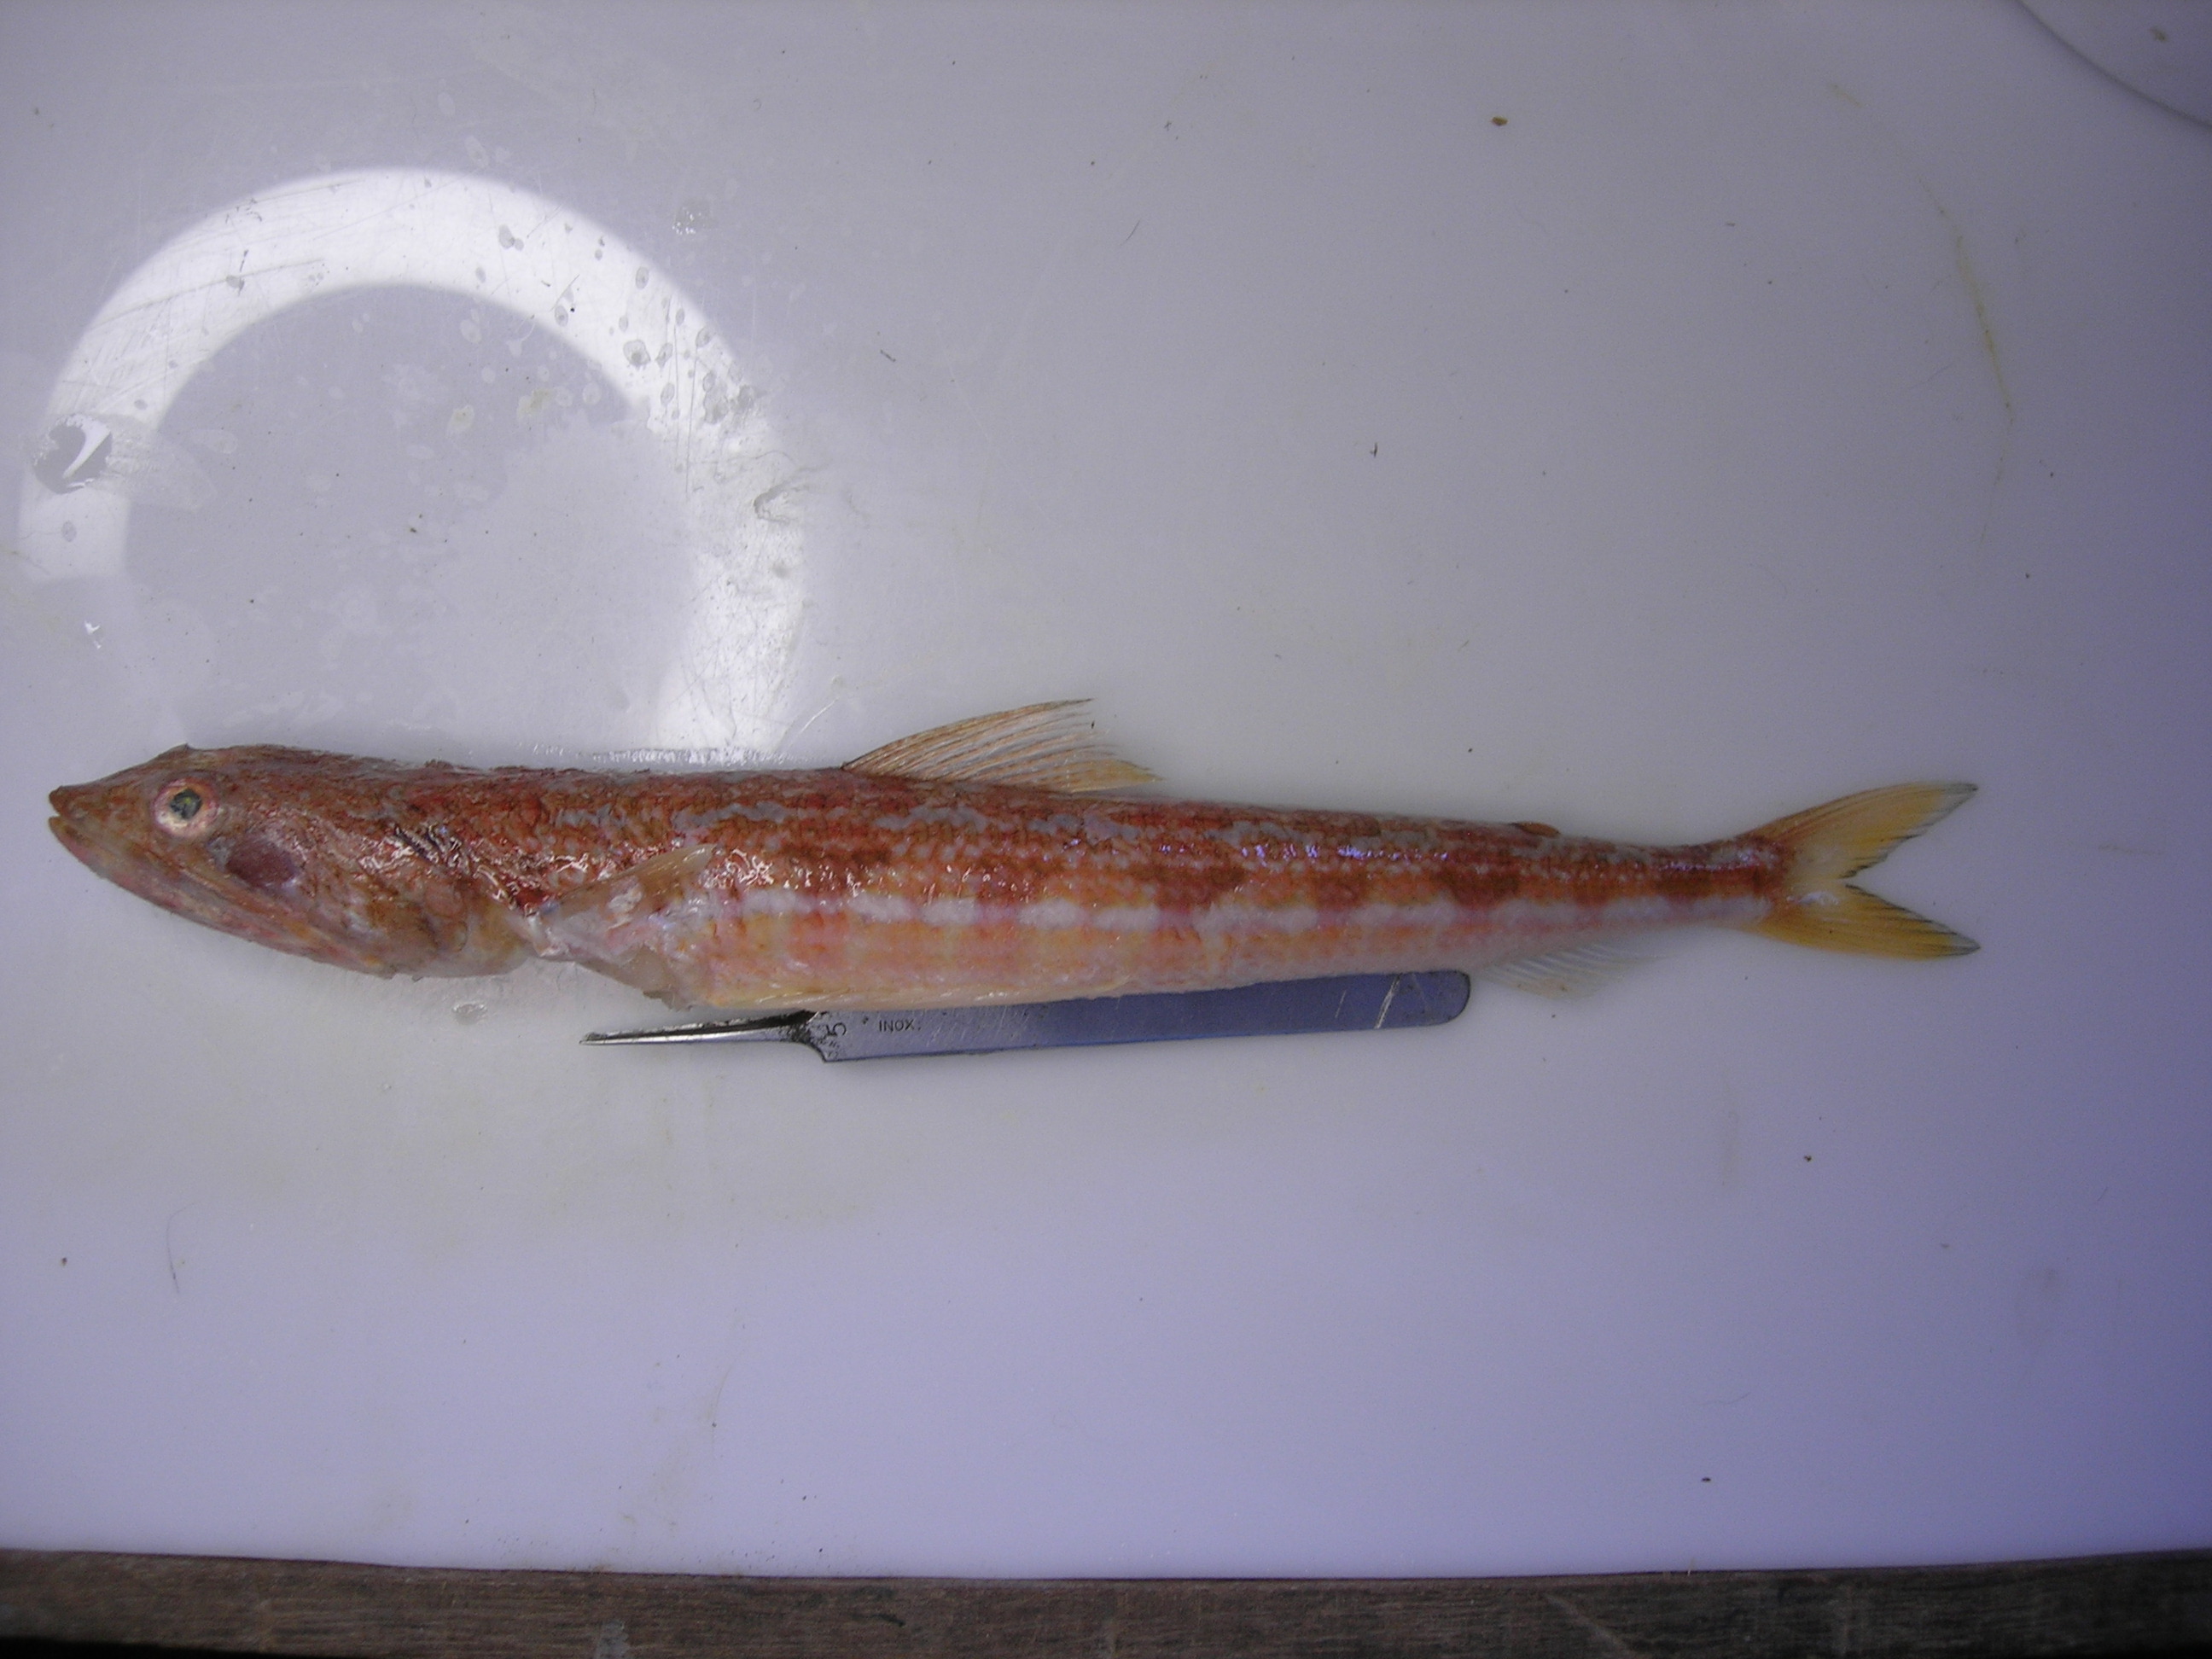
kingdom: Animalia
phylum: Chordata
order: Aulopiformes
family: Synodontidae
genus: Synodus
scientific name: Synodus indicus
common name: Indian lizardfish
